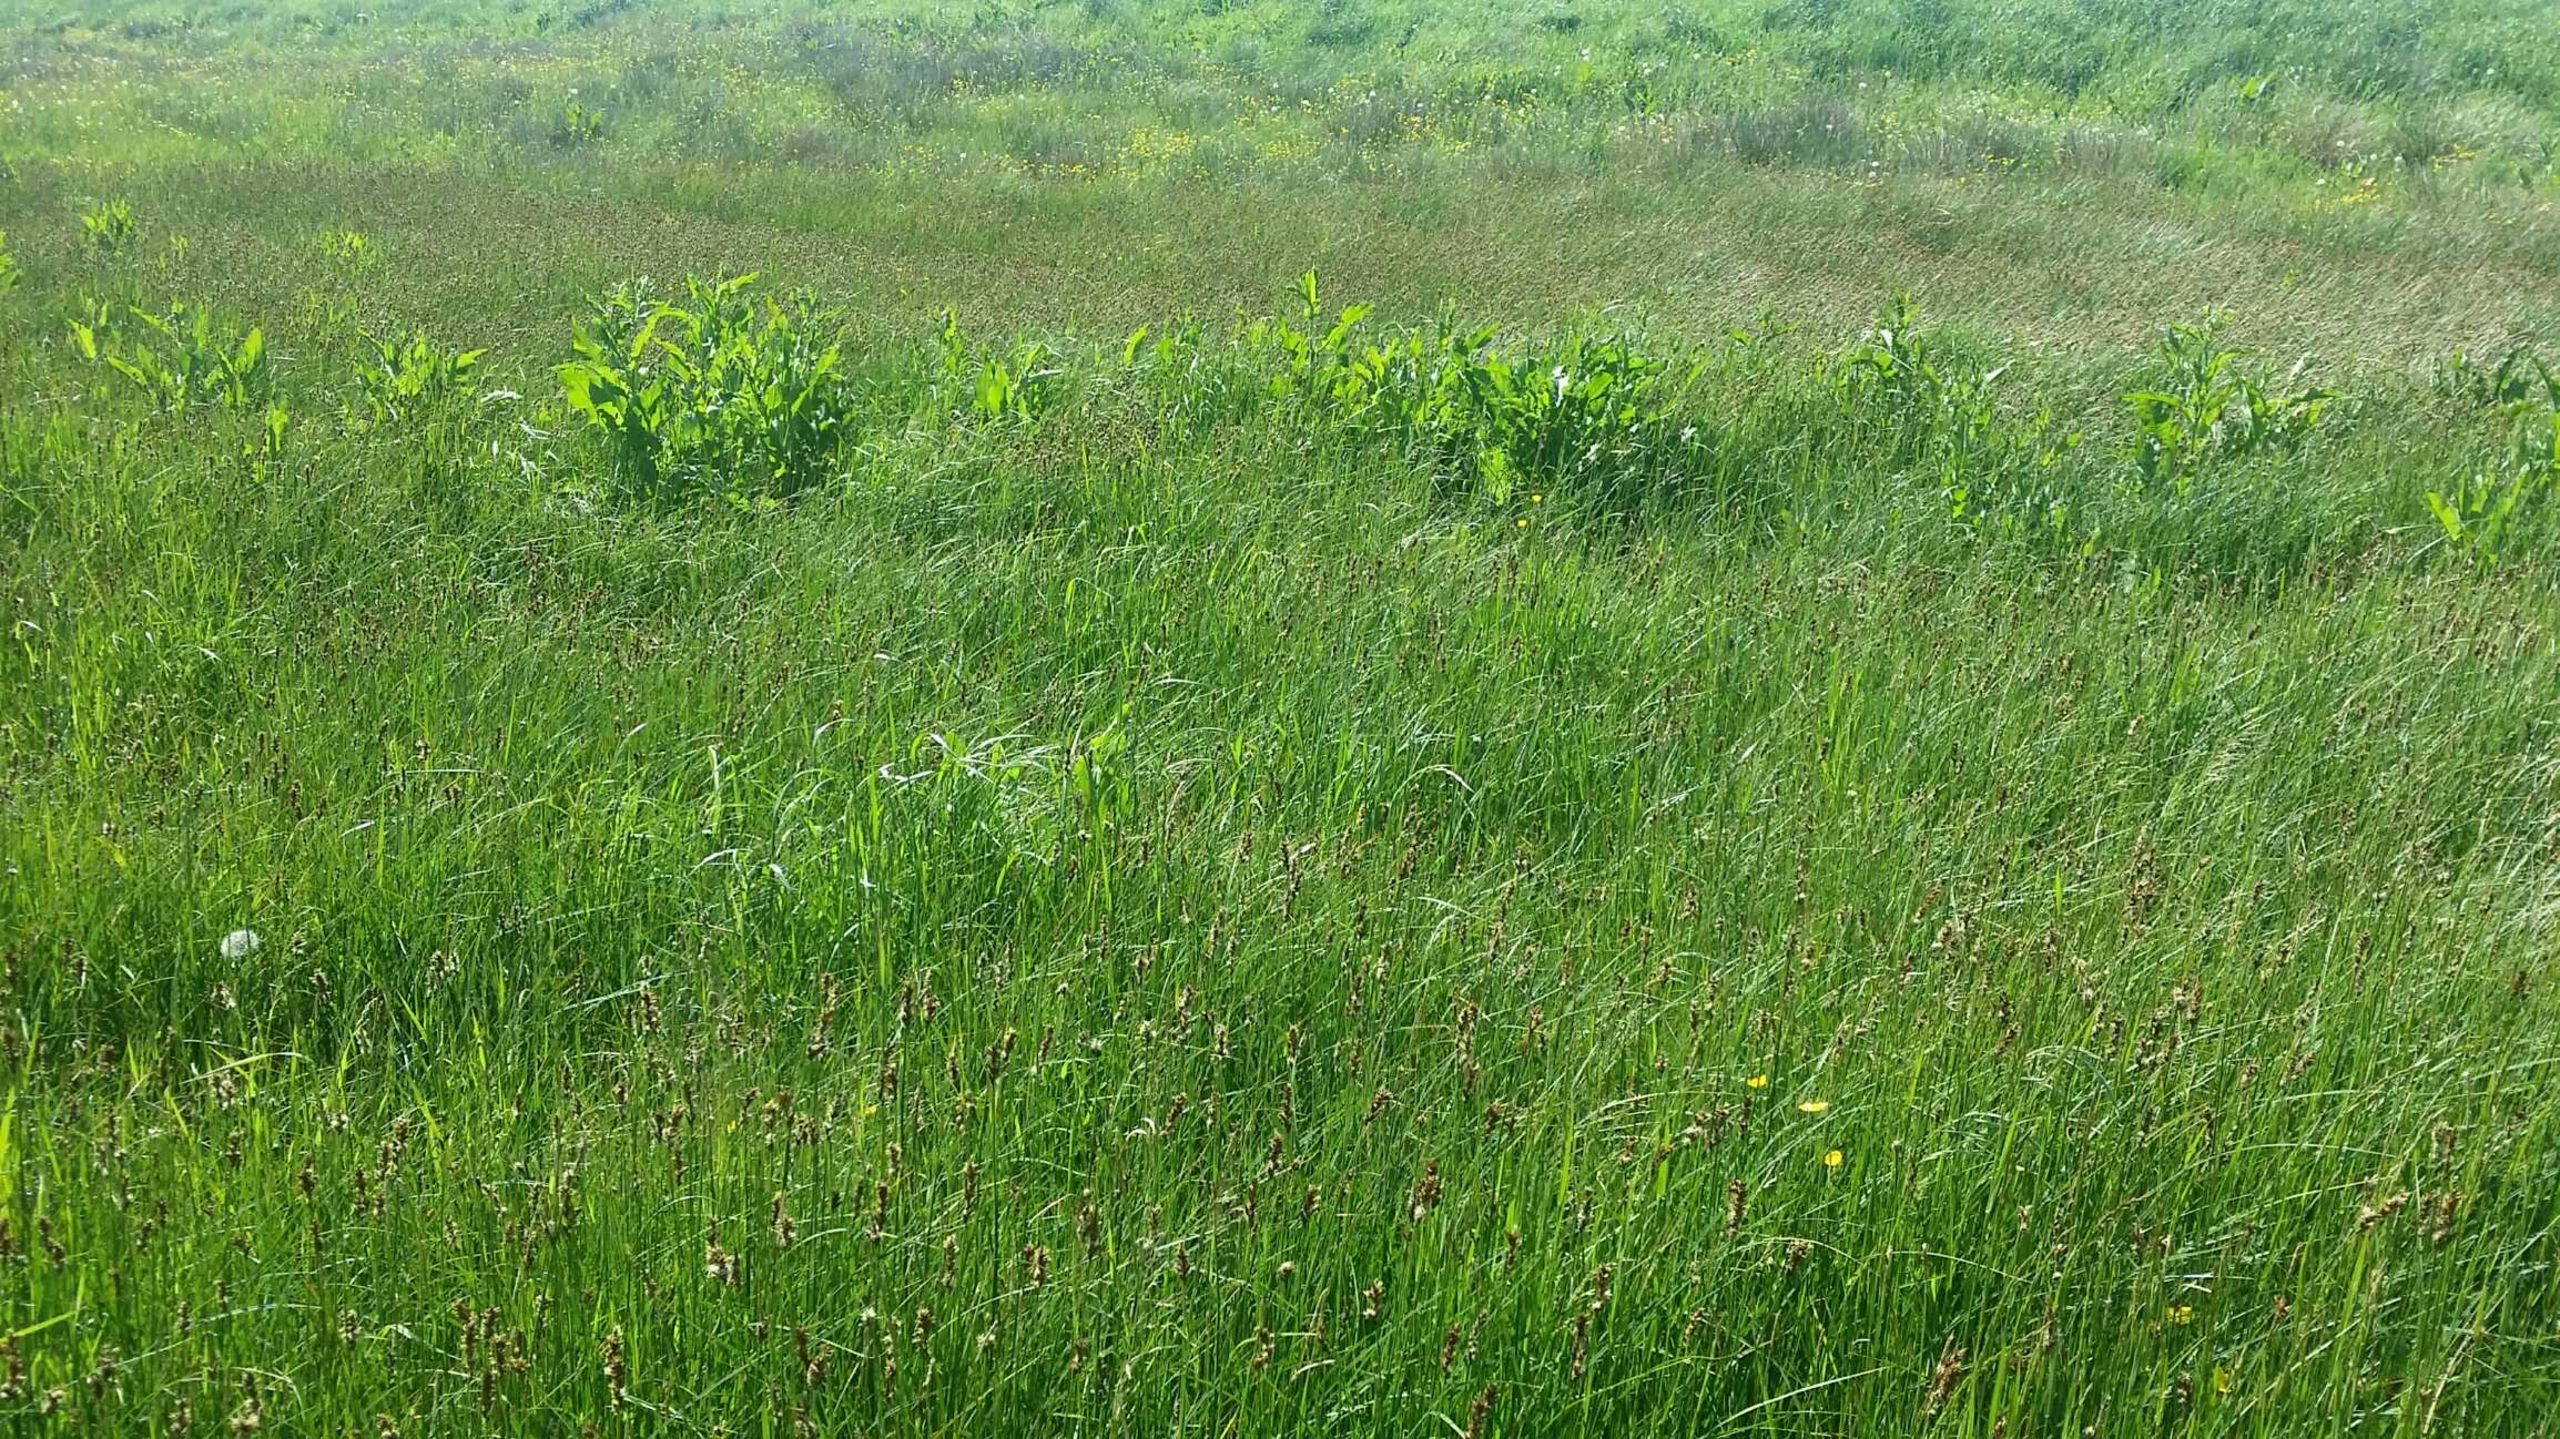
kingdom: Plantae
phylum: Tracheophyta
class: Liliopsida
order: Poales
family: Cyperaceae
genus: Carex
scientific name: Carex disticha
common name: Toradet star
